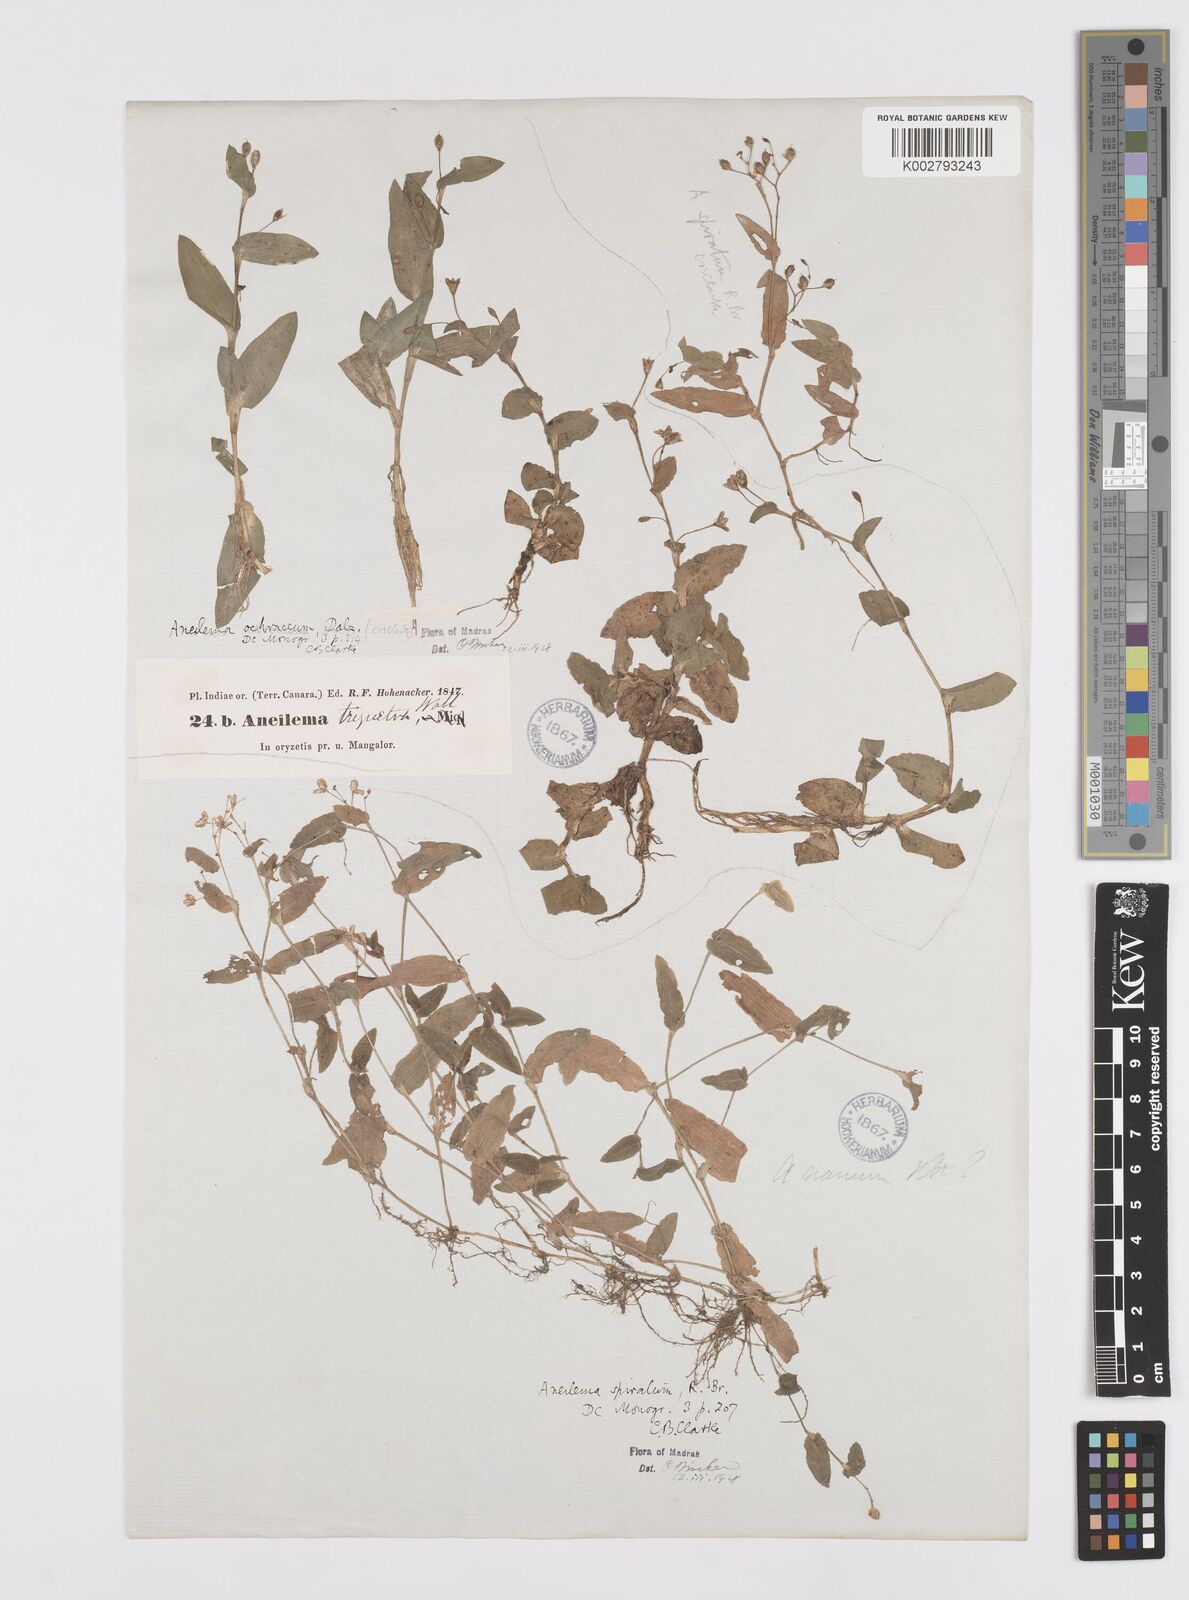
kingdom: Plantae
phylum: Tracheophyta
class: Liliopsida
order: Commelinales
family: Commelinaceae
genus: Murdannia
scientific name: Murdannia
